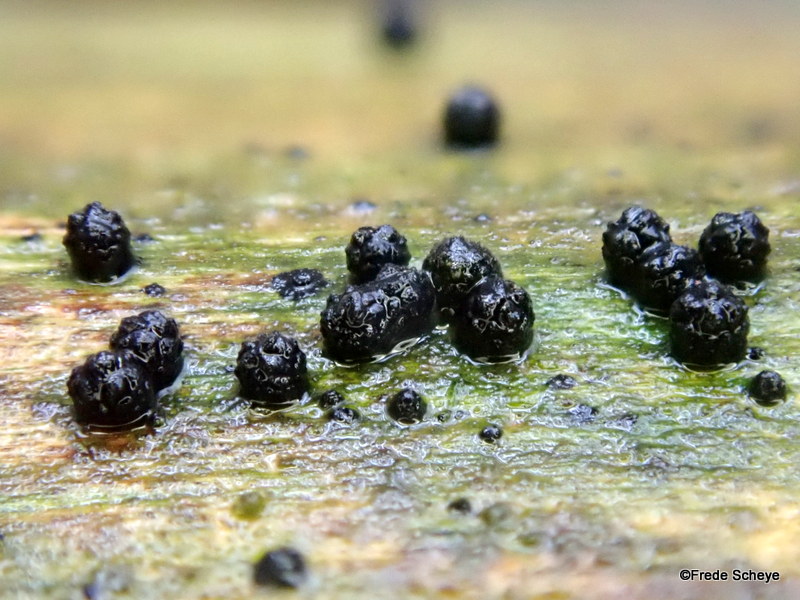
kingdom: Fungi
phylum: Ascomycota
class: Sordariomycetes
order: Coronophorales
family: Bertiaceae
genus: Bertia
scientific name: Bertia moriformis
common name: almindelig morbærkerne
